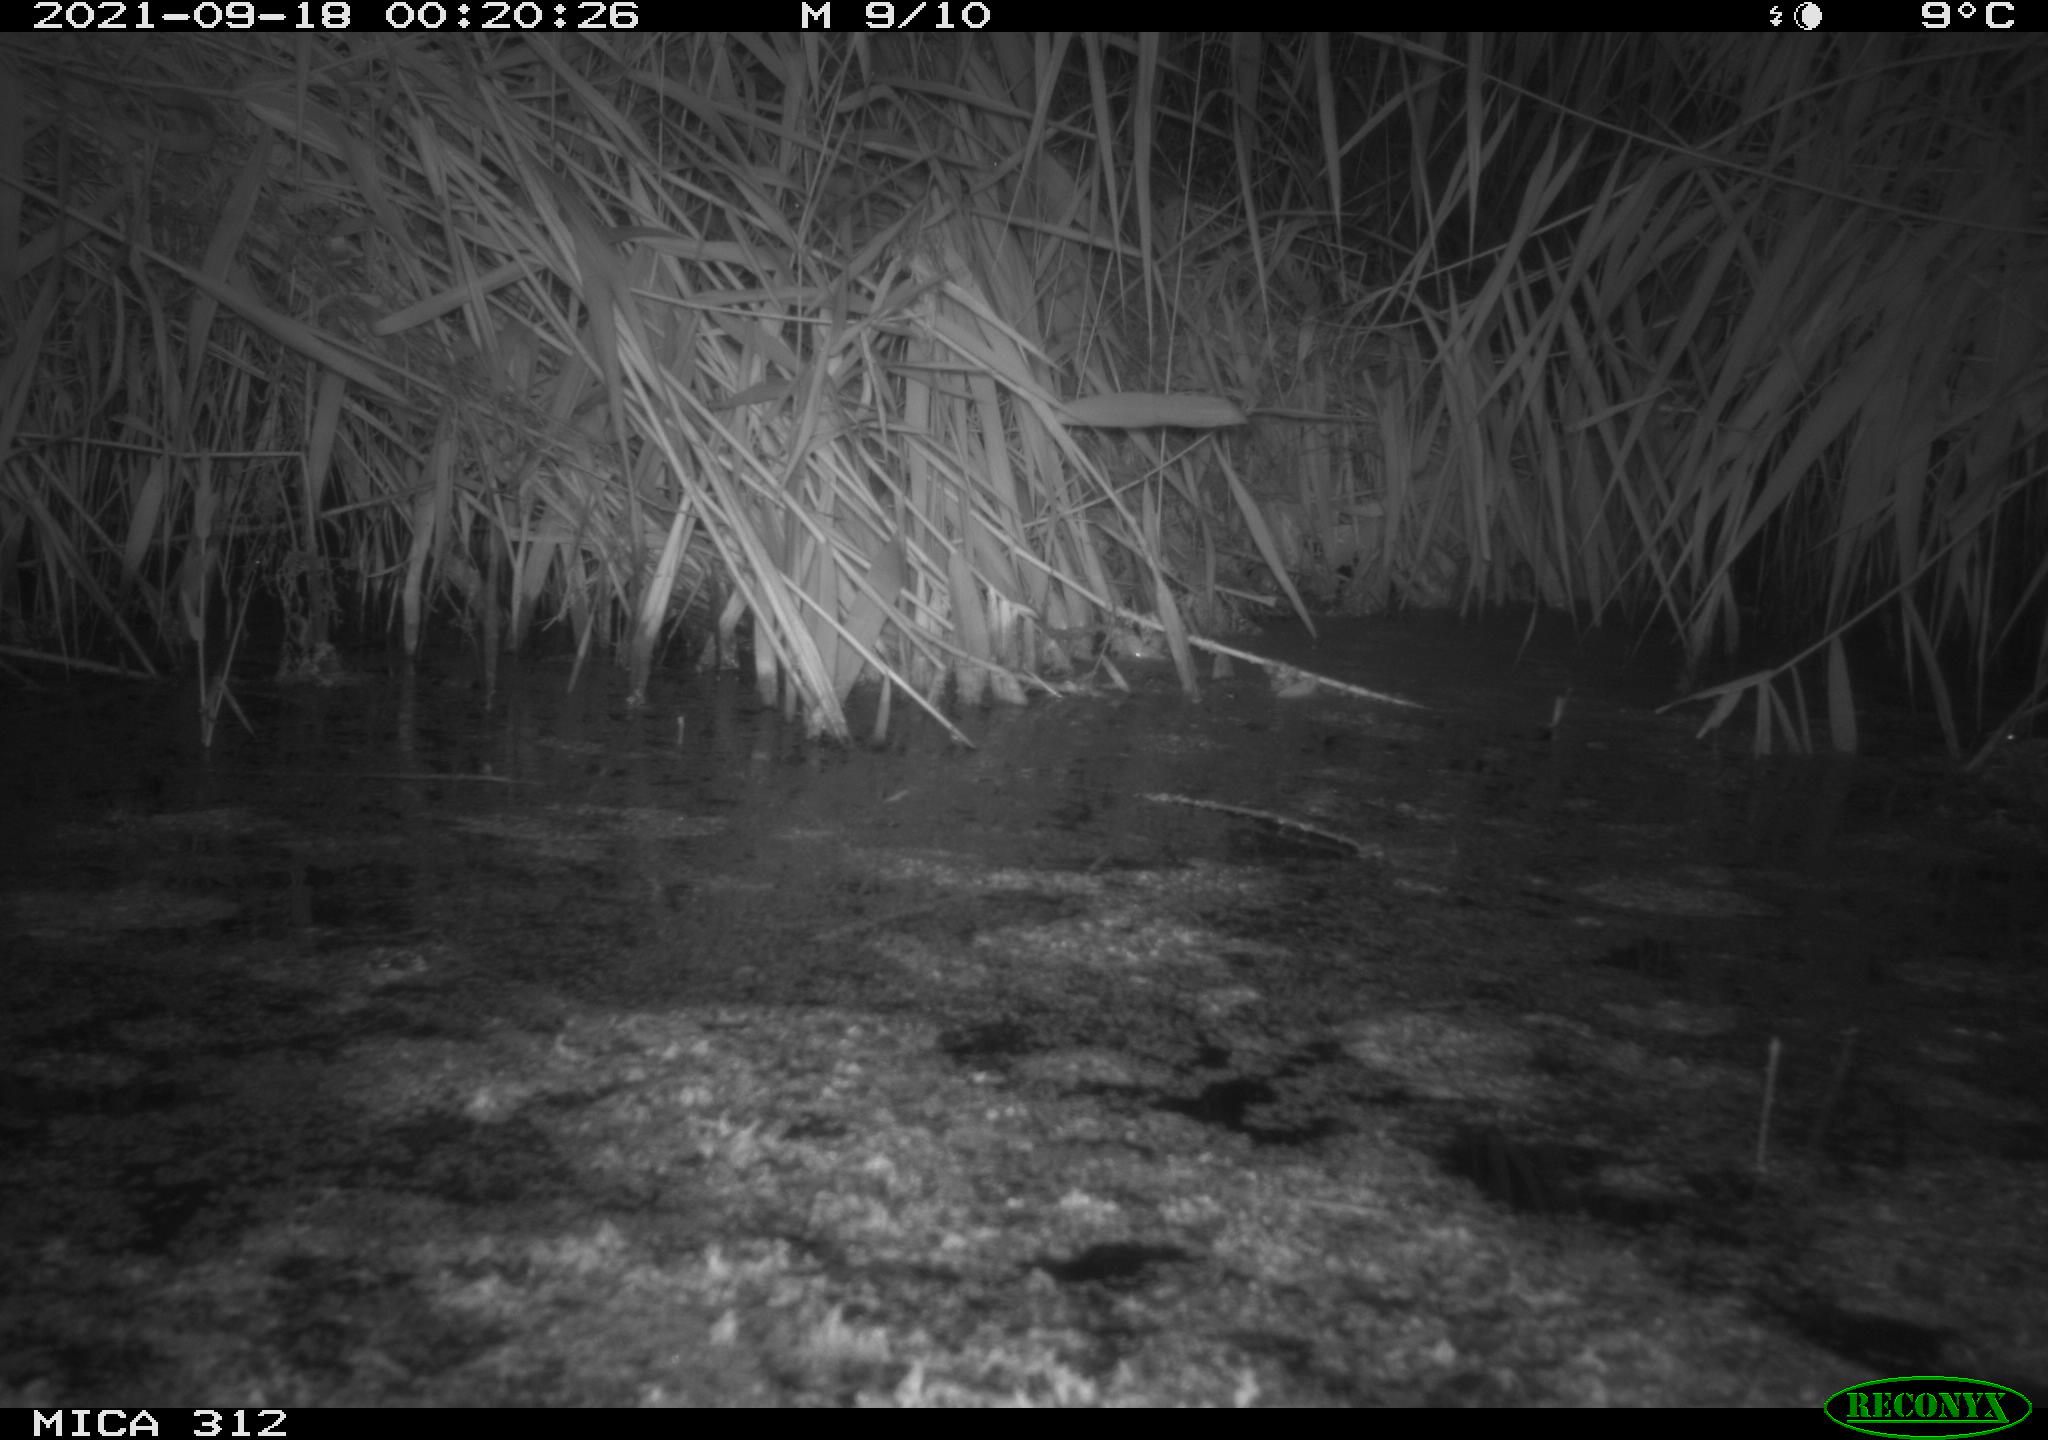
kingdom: Animalia
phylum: Chordata
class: Mammalia
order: Rodentia
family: Muridae
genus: Rattus
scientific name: Rattus norvegicus
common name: Brown rat
